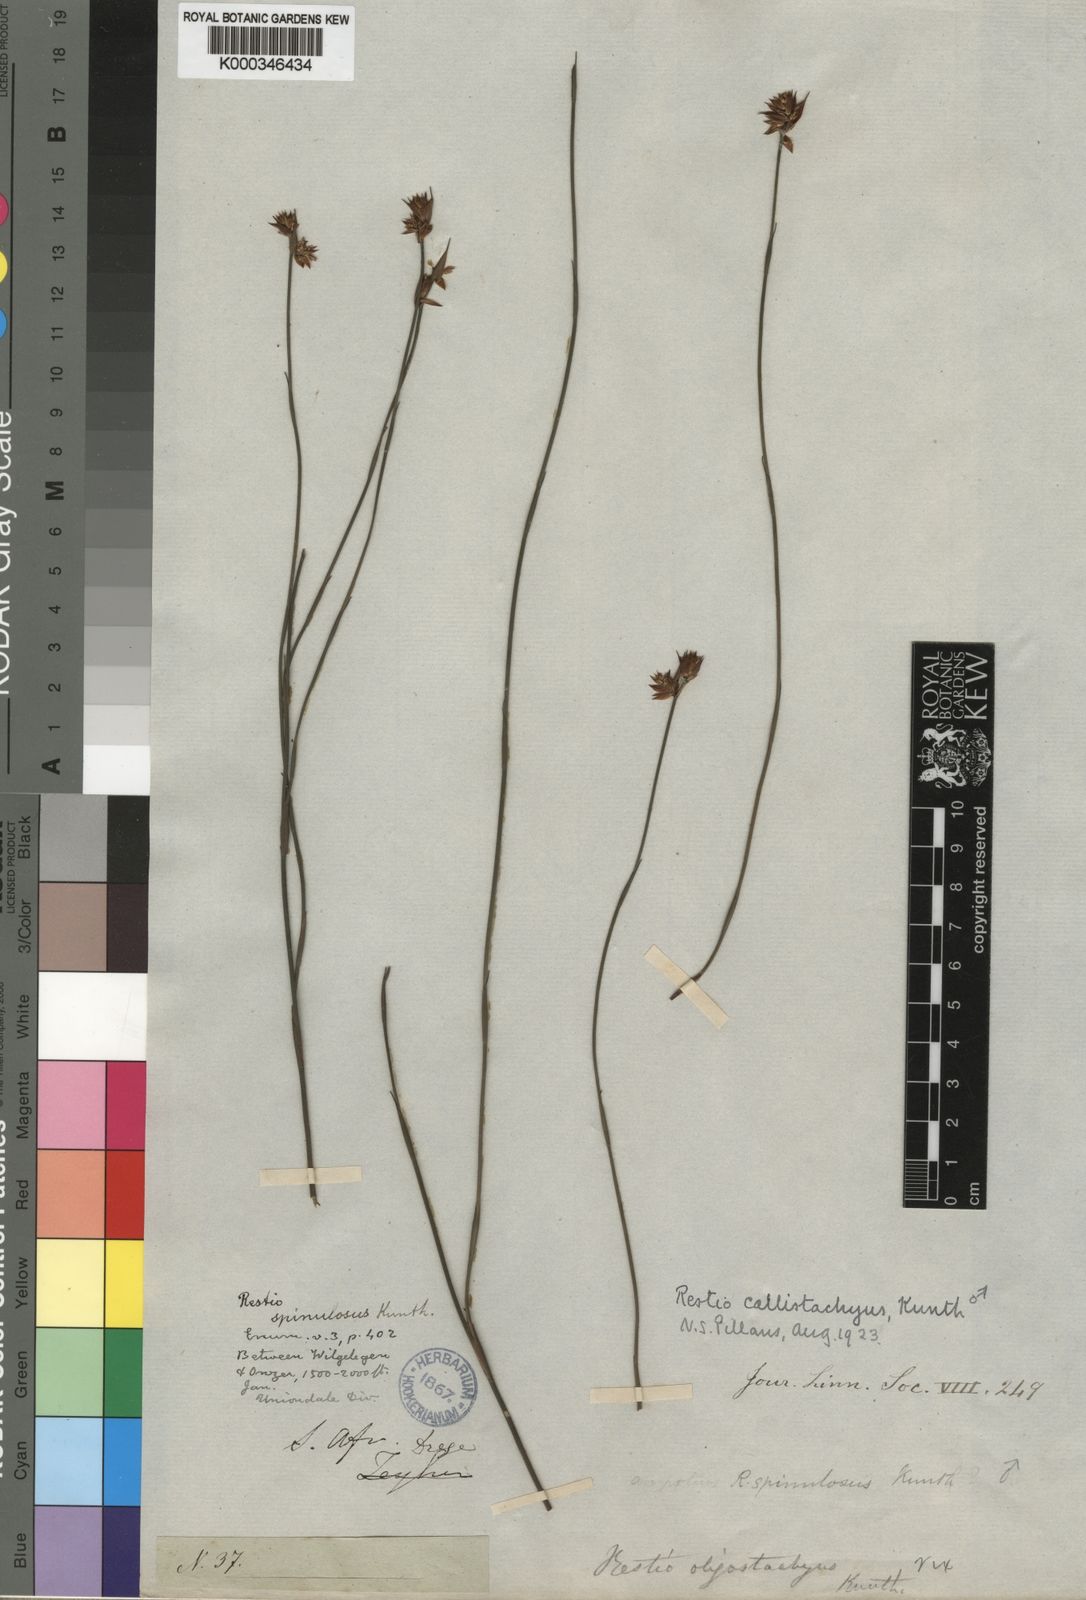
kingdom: Plantae
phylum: Tracheophyta
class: Liliopsida
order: Poales
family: Restionaceae
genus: Platycaulos
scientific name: Platycaulos callistachyus
